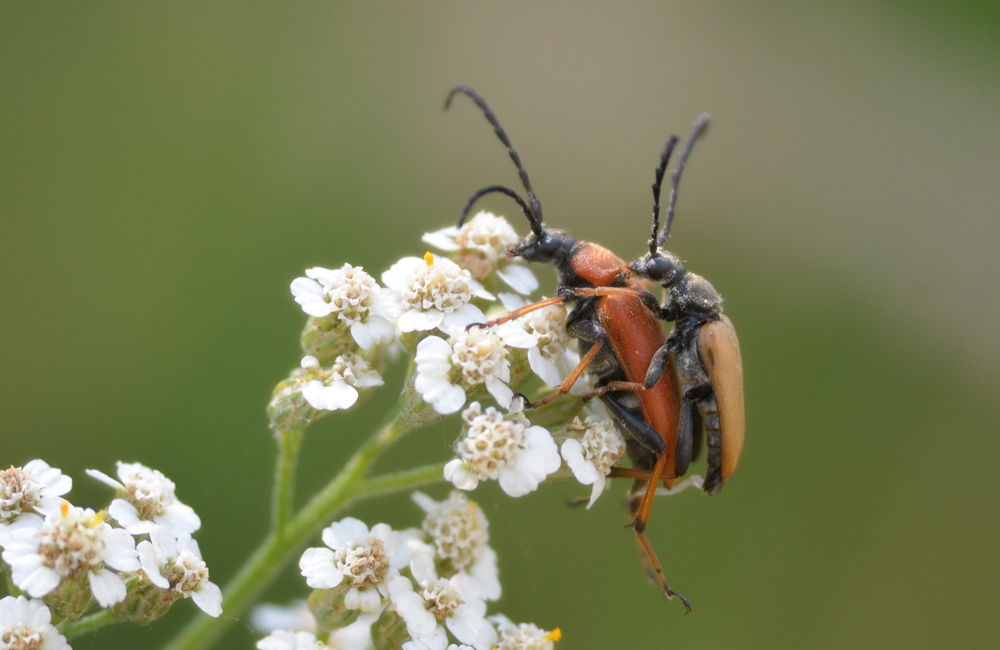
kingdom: Animalia
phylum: Arthropoda
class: Insecta
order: Coleoptera
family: Cerambycidae
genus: Stictoleptura
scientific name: Stictoleptura rubra
